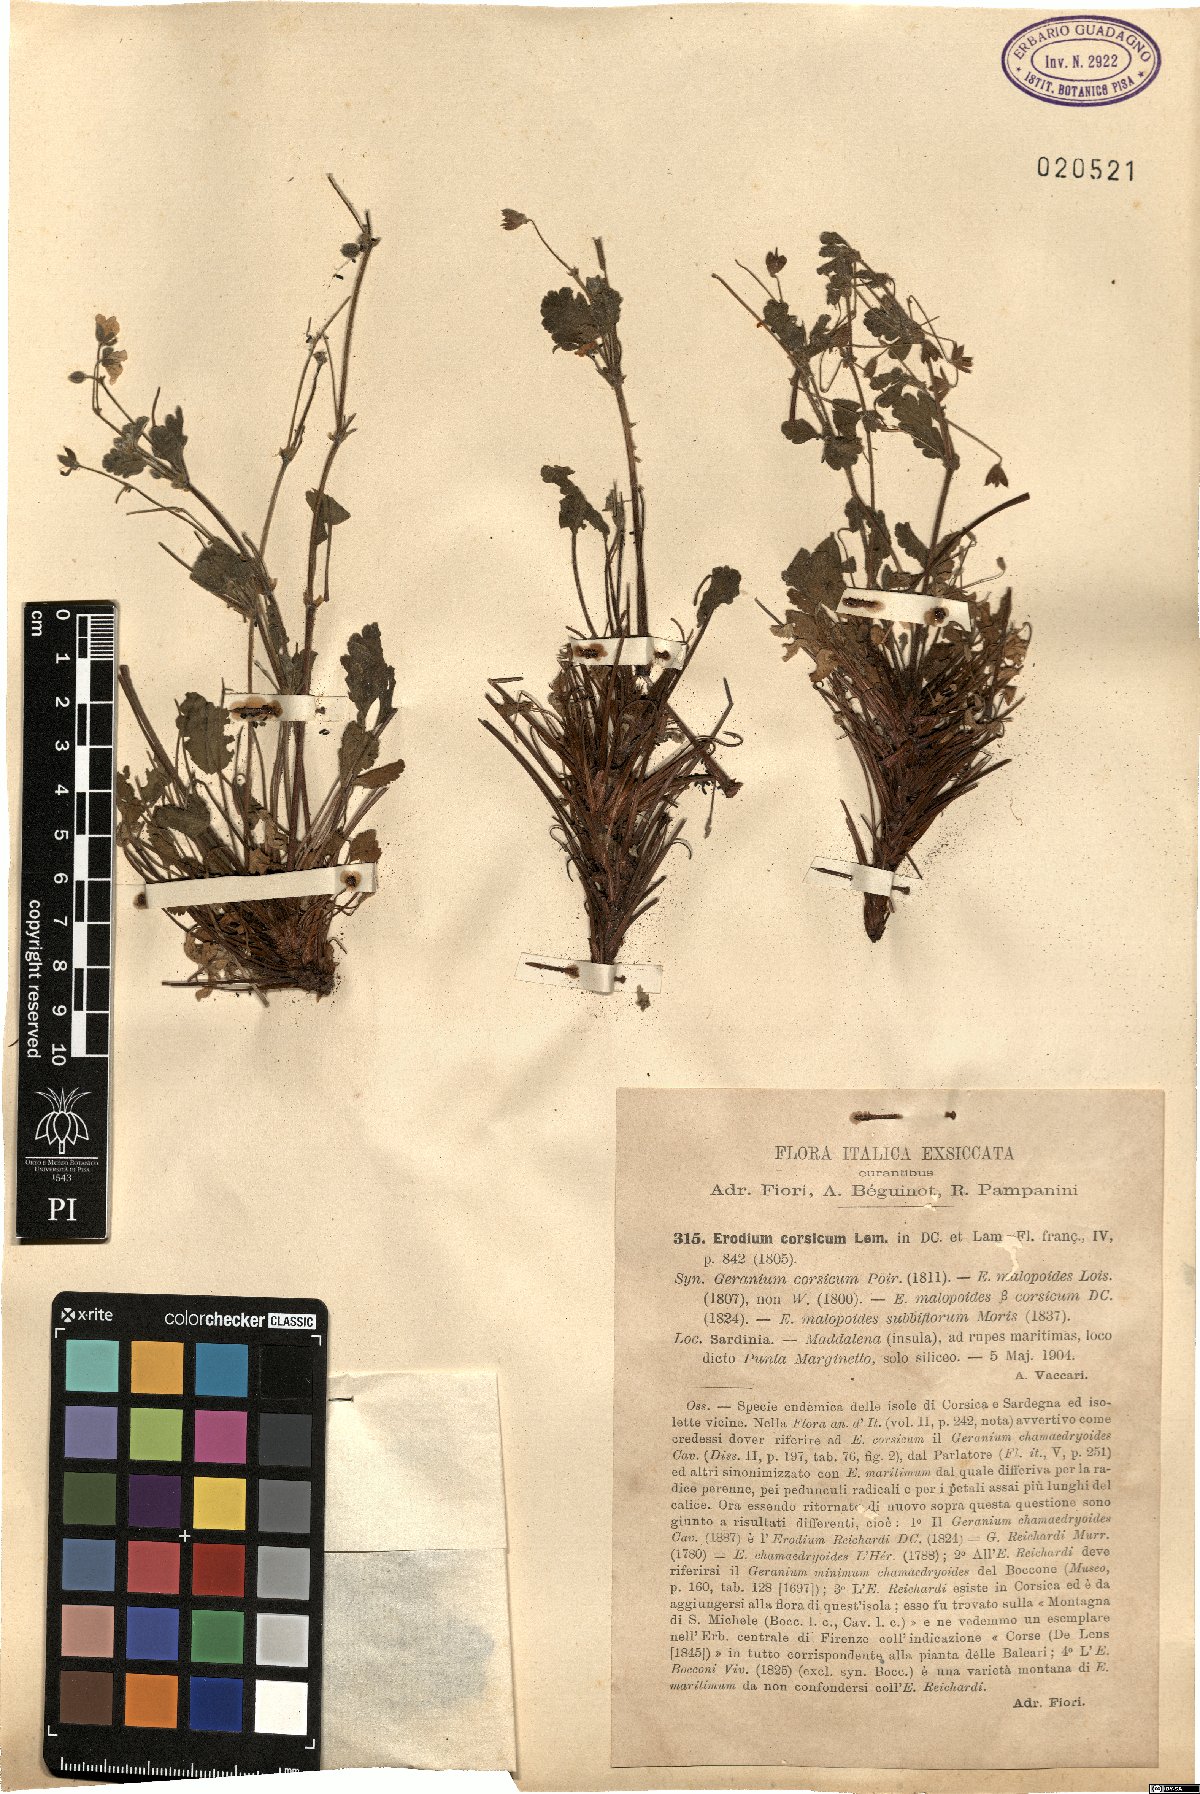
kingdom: Plantae
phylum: Tracheophyta
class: Magnoliopsida
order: Geraniales
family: Geraniaceae
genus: Erodium
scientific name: Erodium corsicum
